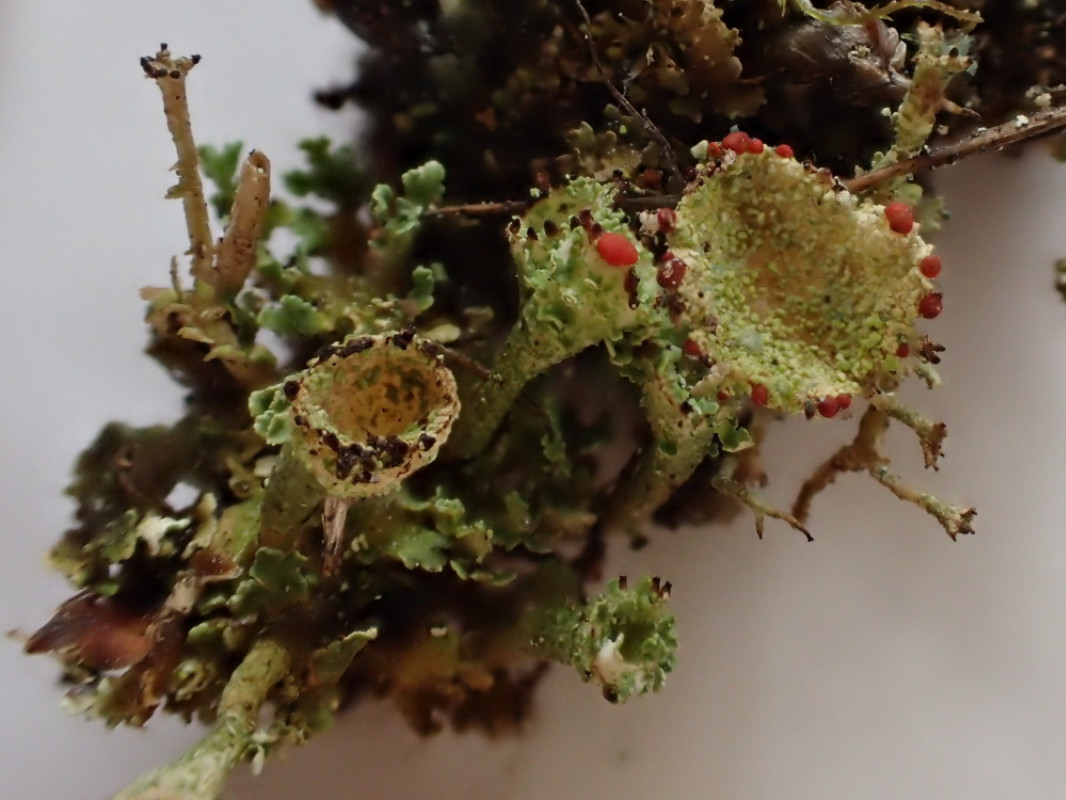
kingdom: Fungi
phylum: Ascomycota
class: Lecanoromycetes
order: Lecanorales
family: Cladoniaceae
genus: Cladonia
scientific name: Cladonia diversa
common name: rød bægerlav
